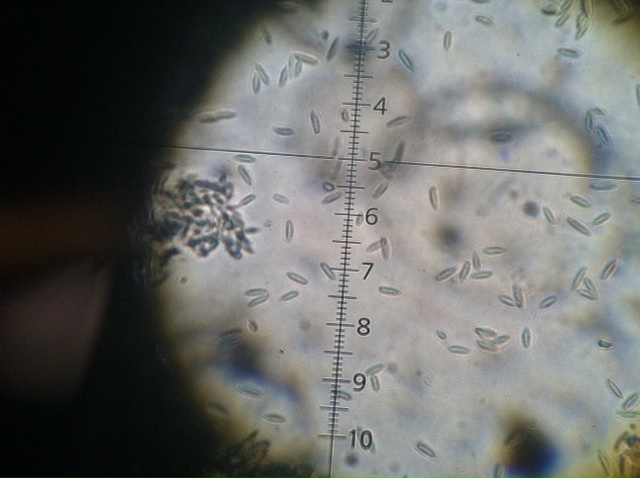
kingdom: Fungi
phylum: Ascomycota
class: Sordariomycetes
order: Xylariales
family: Xylariaceae
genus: Xylaria
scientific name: Xylaria hypoxylon
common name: grenet stødsvamp
